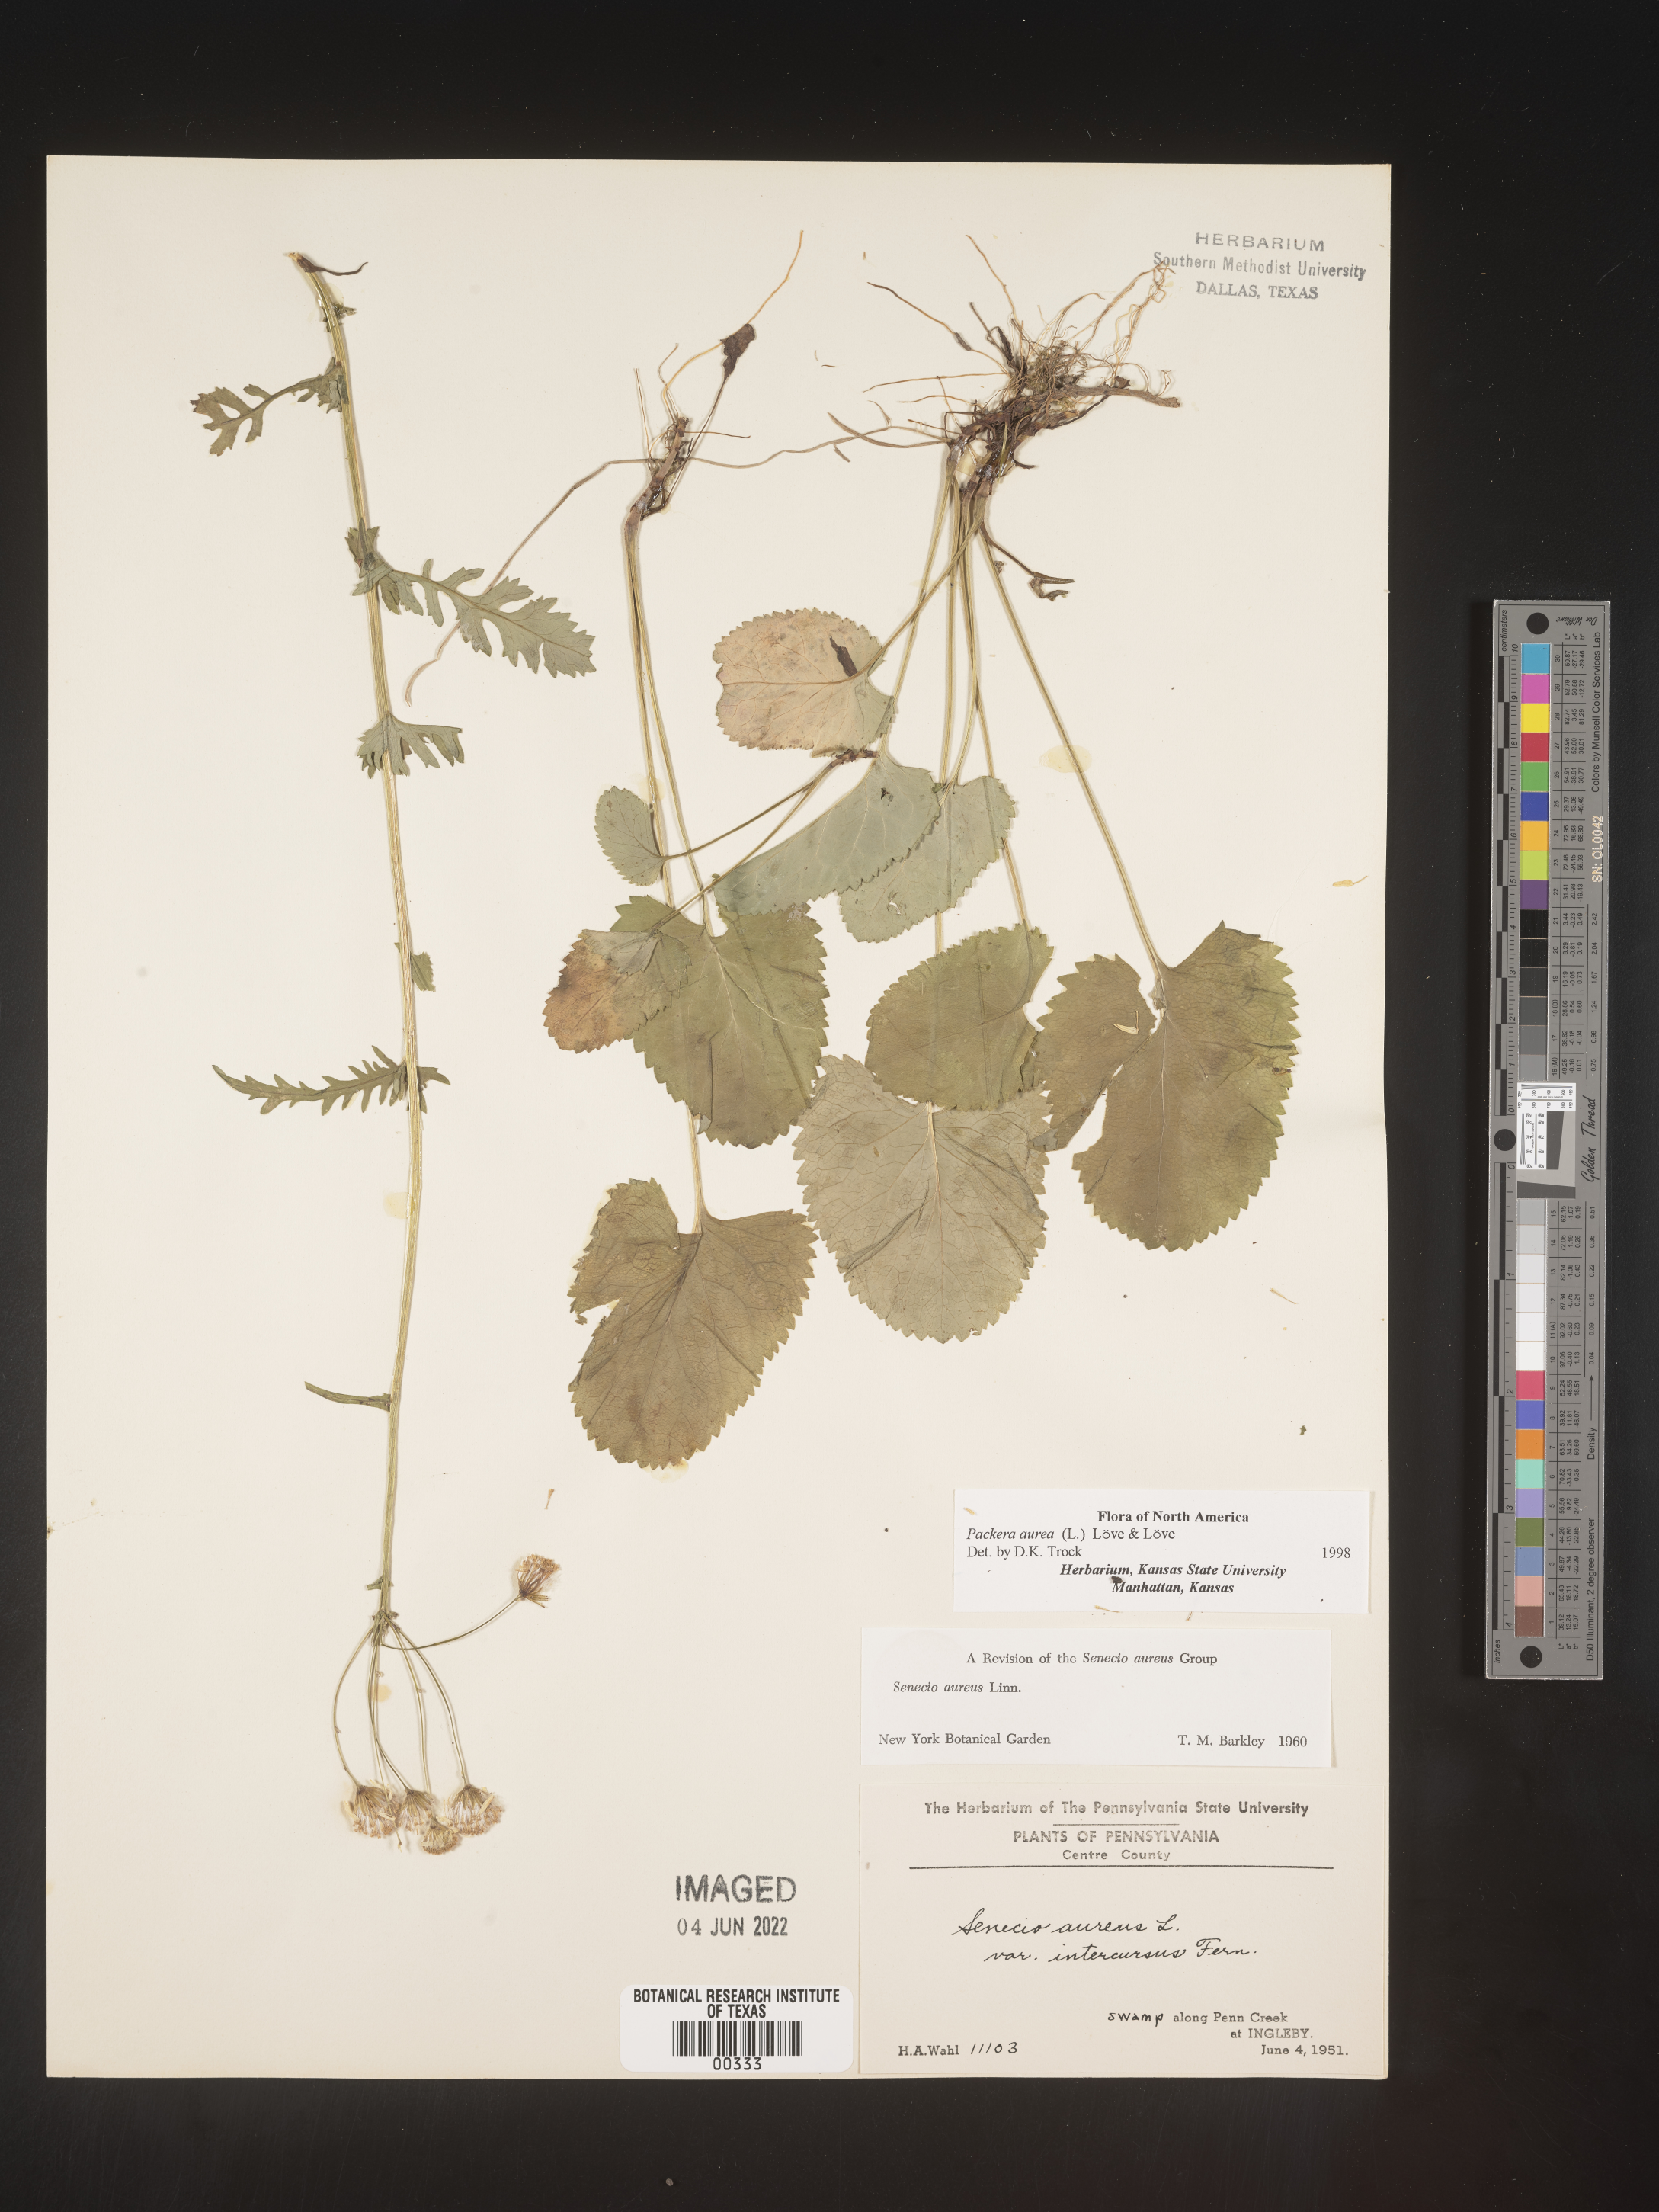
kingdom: Plantae
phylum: Tracheophyta
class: Magnoliopsida
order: Asterales
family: Asteraceae
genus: Packera
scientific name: Packera aurea
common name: Golden groundsel
